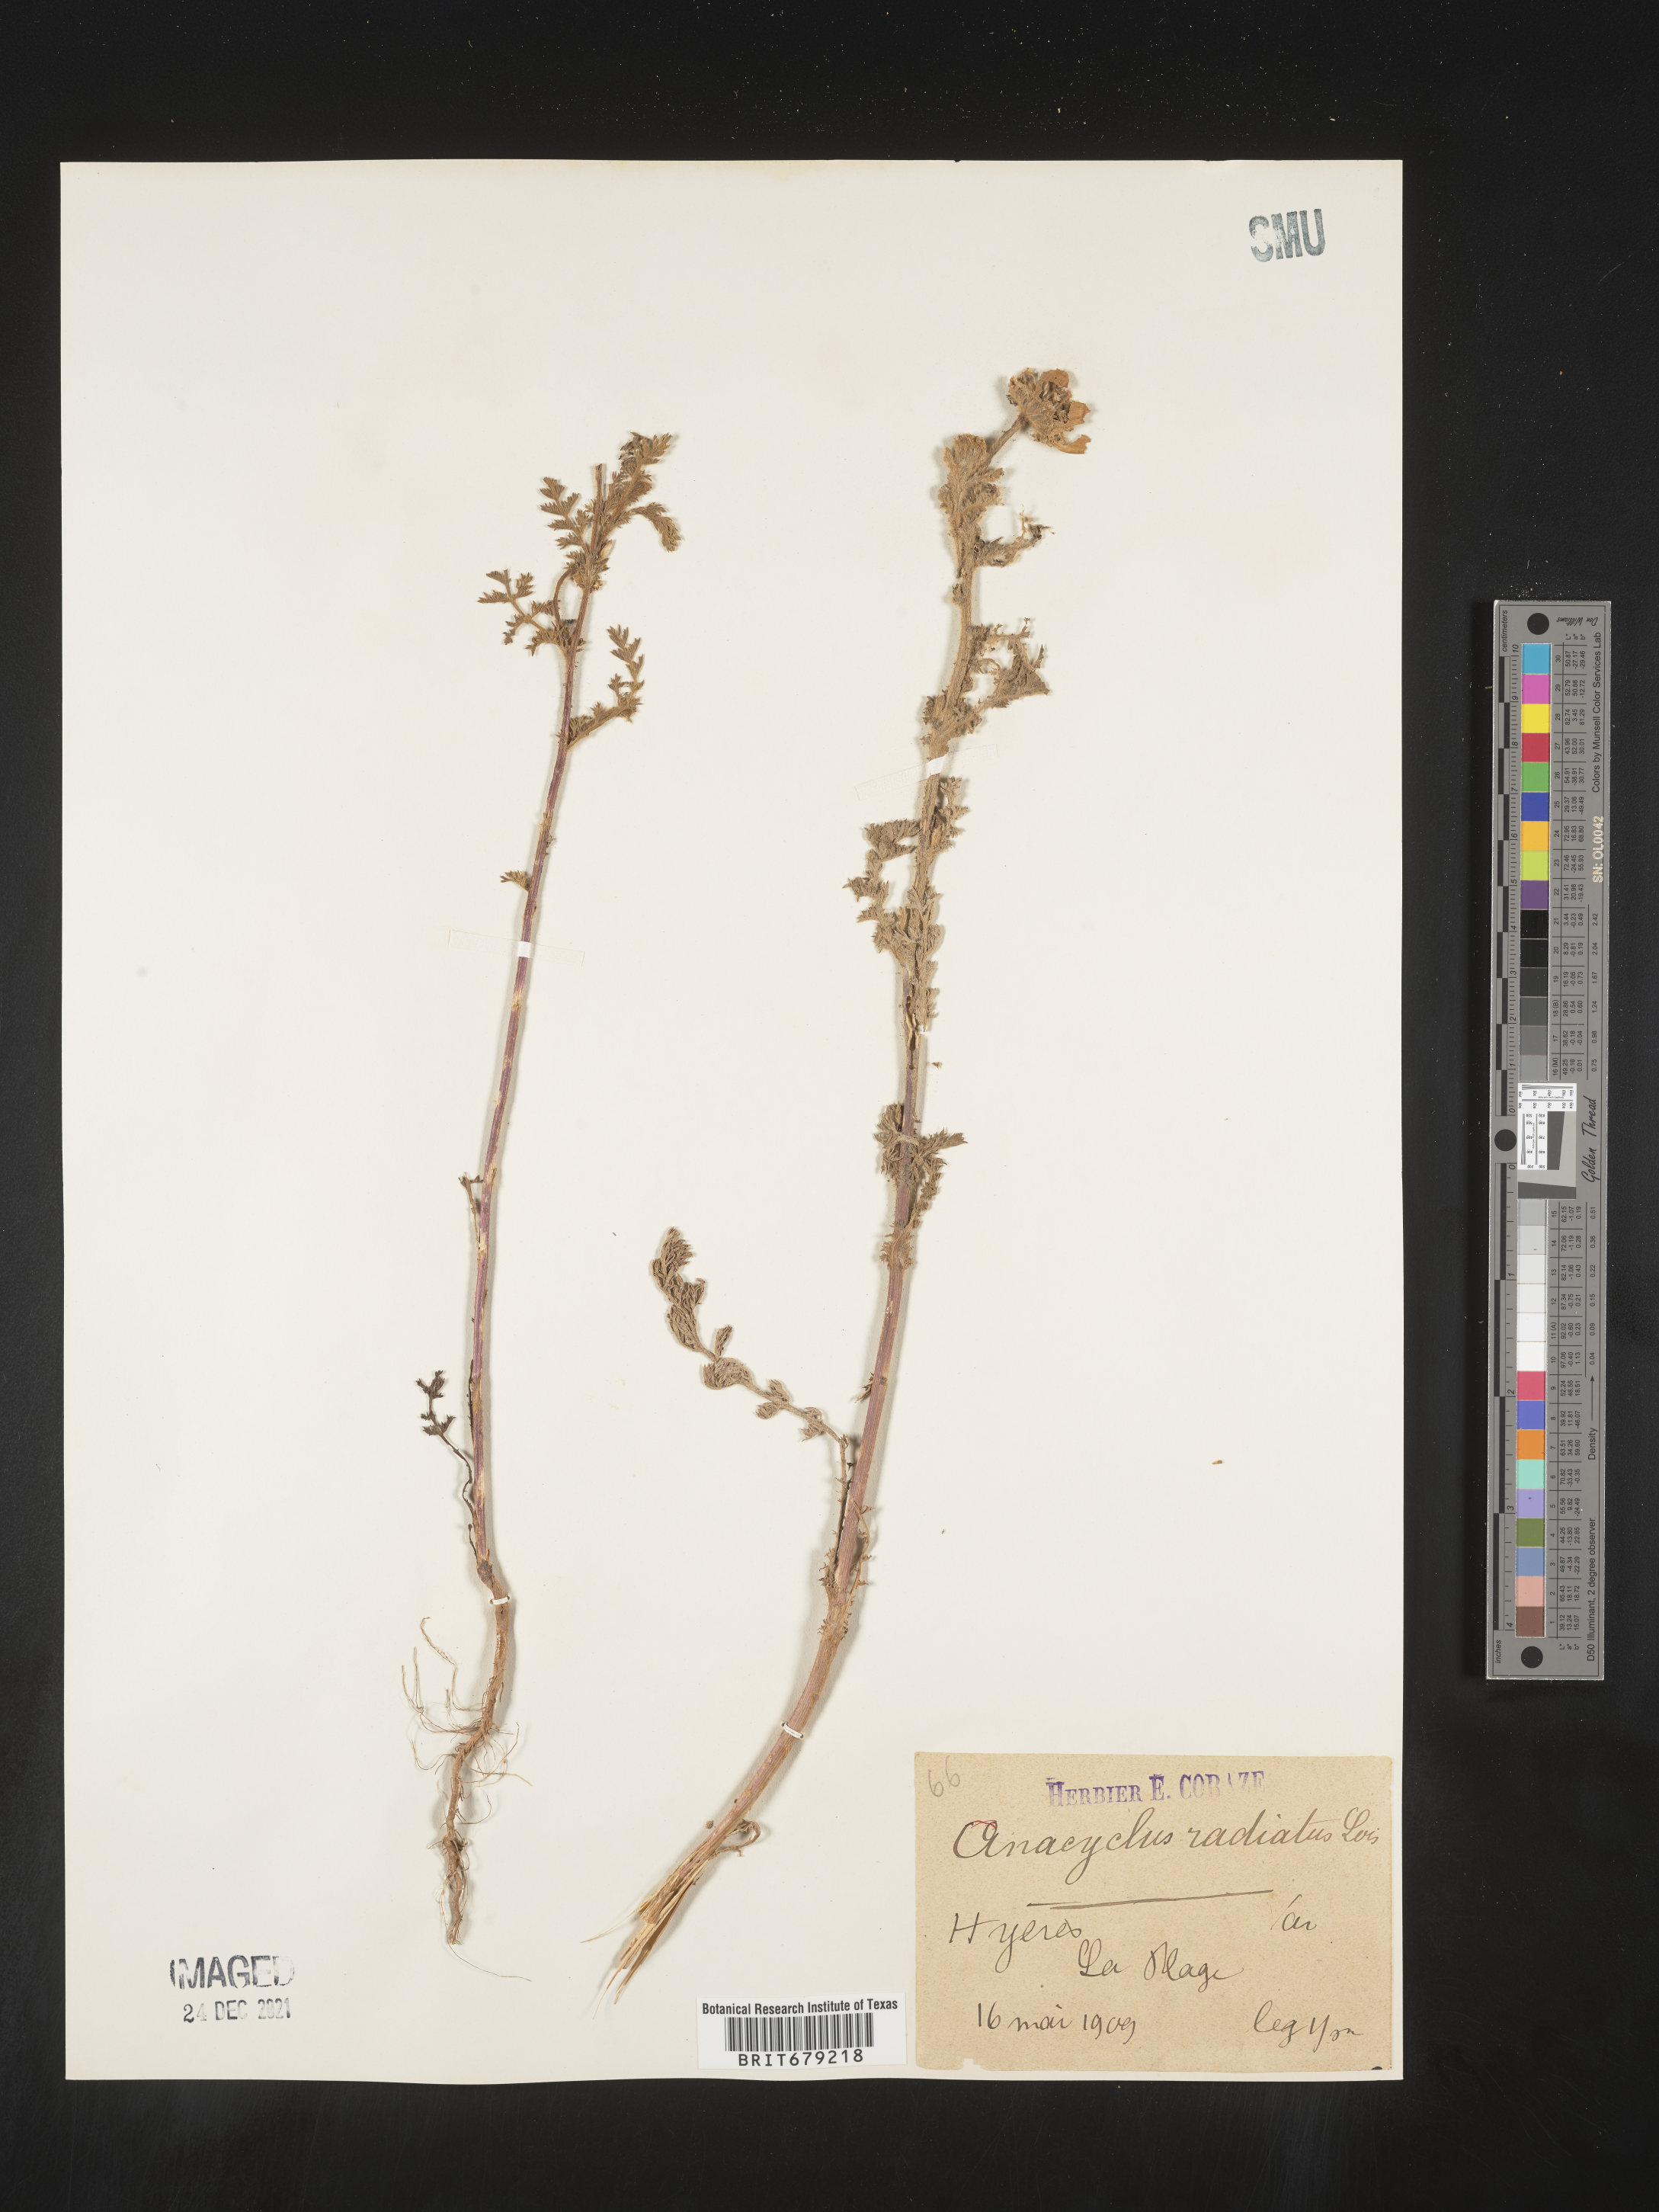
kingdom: Plantae
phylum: Tracheophyta
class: Magnoliopsida
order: Asterales
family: Asteraceae
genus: Anacyclus
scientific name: Anacyclus
